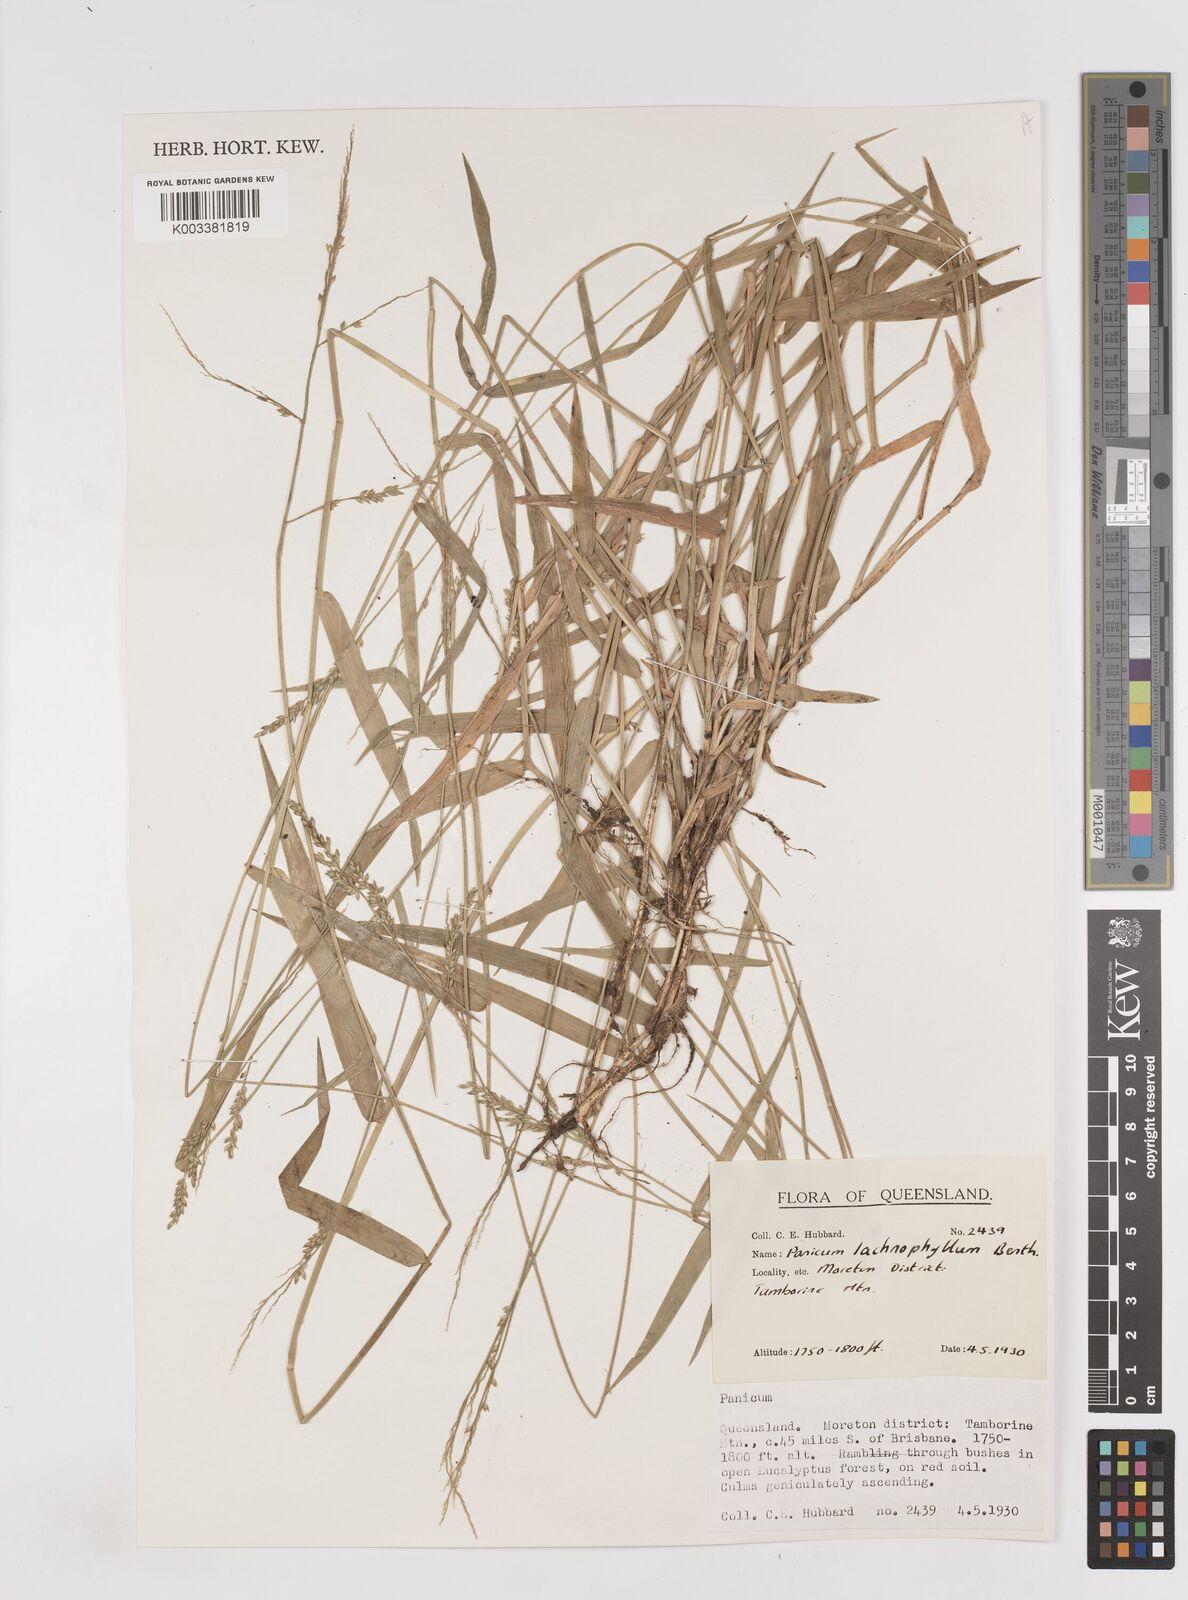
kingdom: Plantae
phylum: Tracheophyta
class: Liliopsida
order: Poales
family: Poaceae
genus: Entolasia
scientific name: Entolasia
